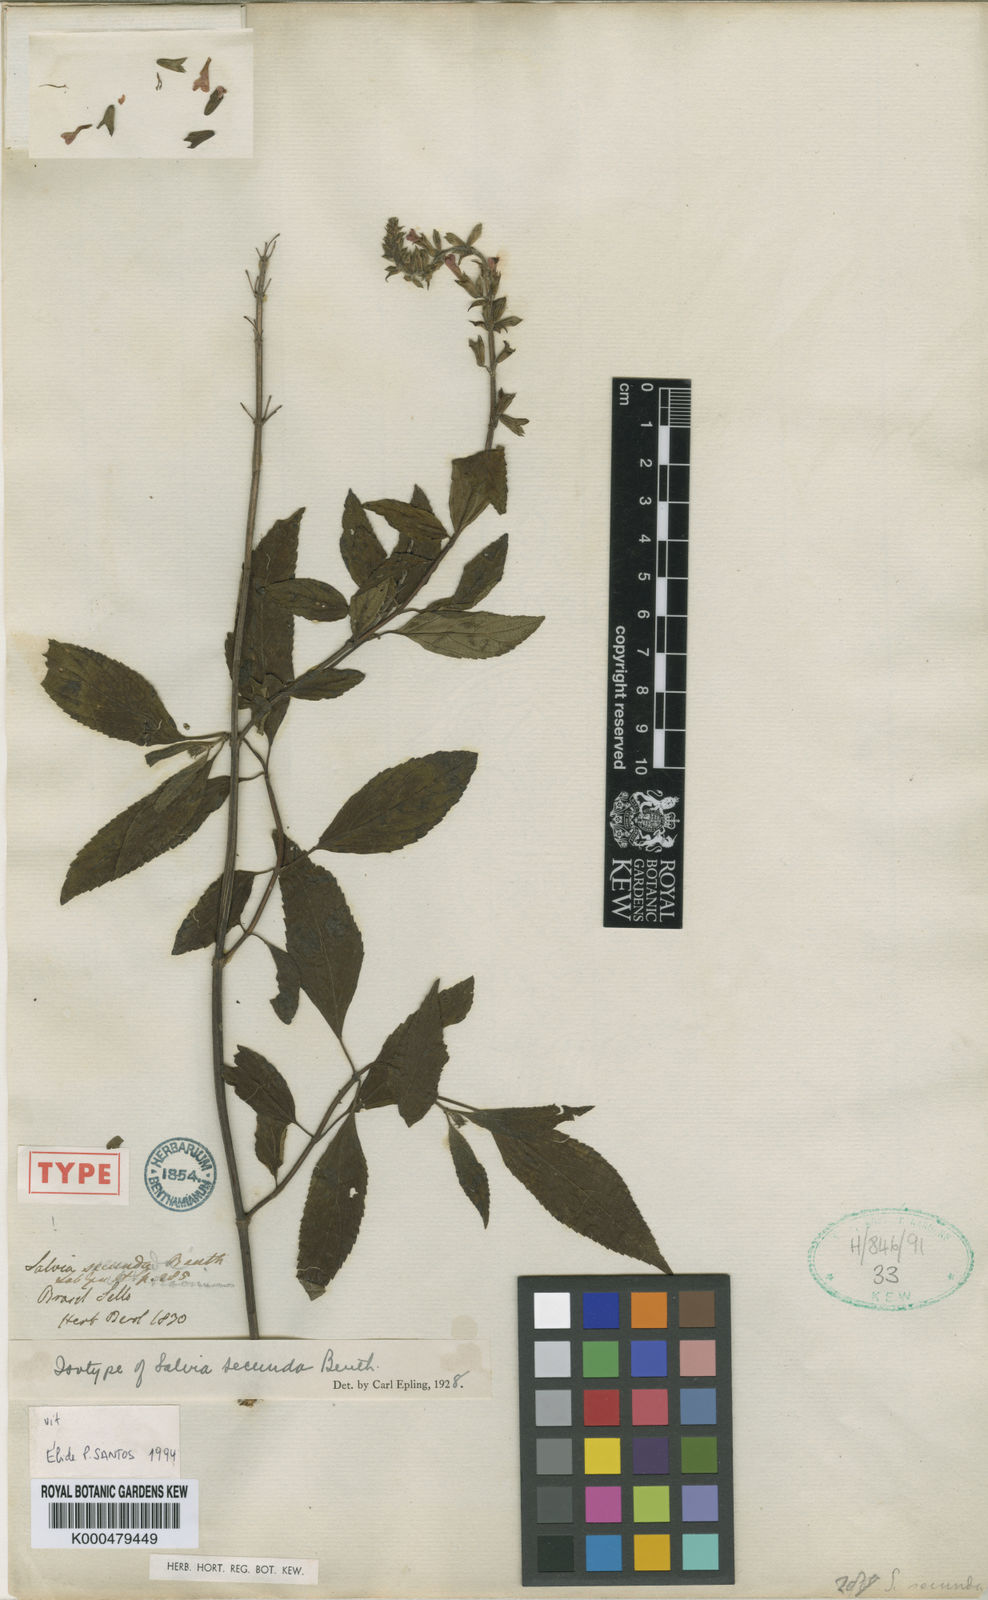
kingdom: Plantae
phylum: Tracheophyta
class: Magnoliopsida
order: Lamiales
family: Lamiaceae
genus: Salvia
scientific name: Salvia secunda
